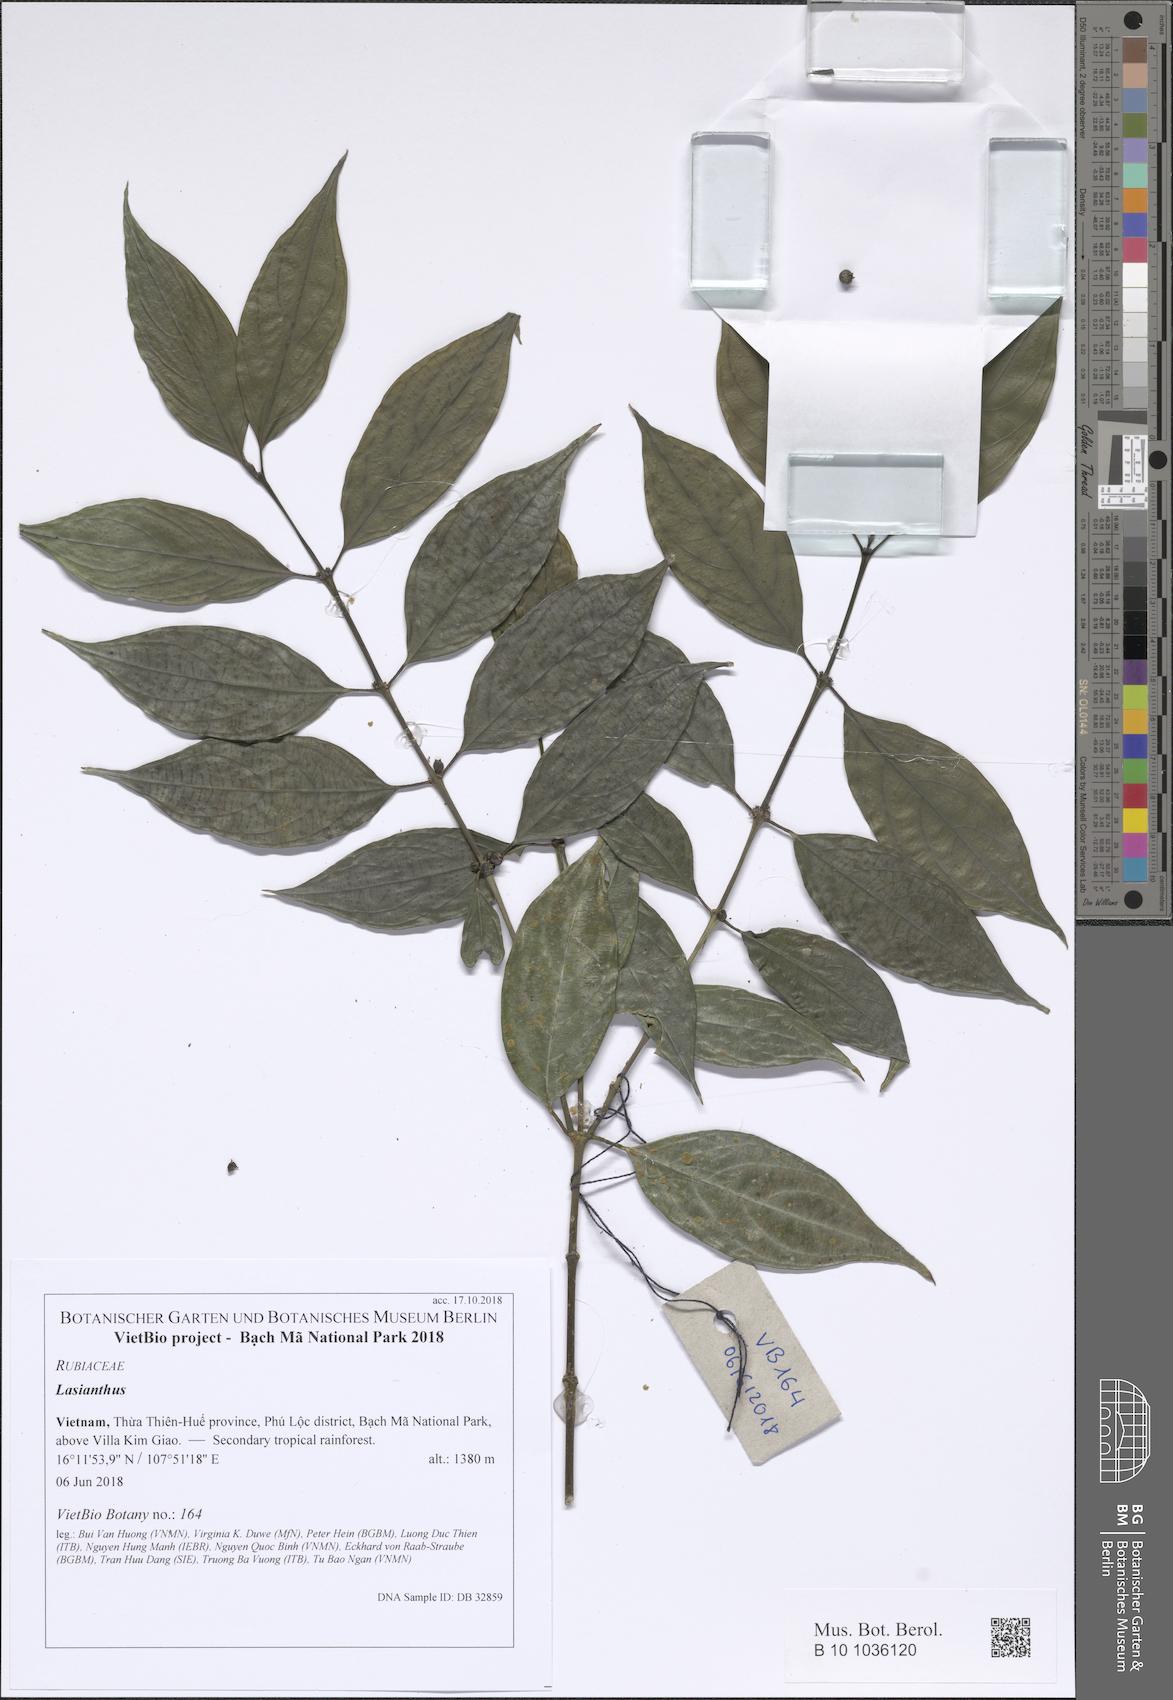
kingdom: Plantae
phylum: Tracheophyta
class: Magnoliopsida
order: Gentianales
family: Rubiaceae
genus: Lasianthus
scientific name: Lasianthus yaharae
